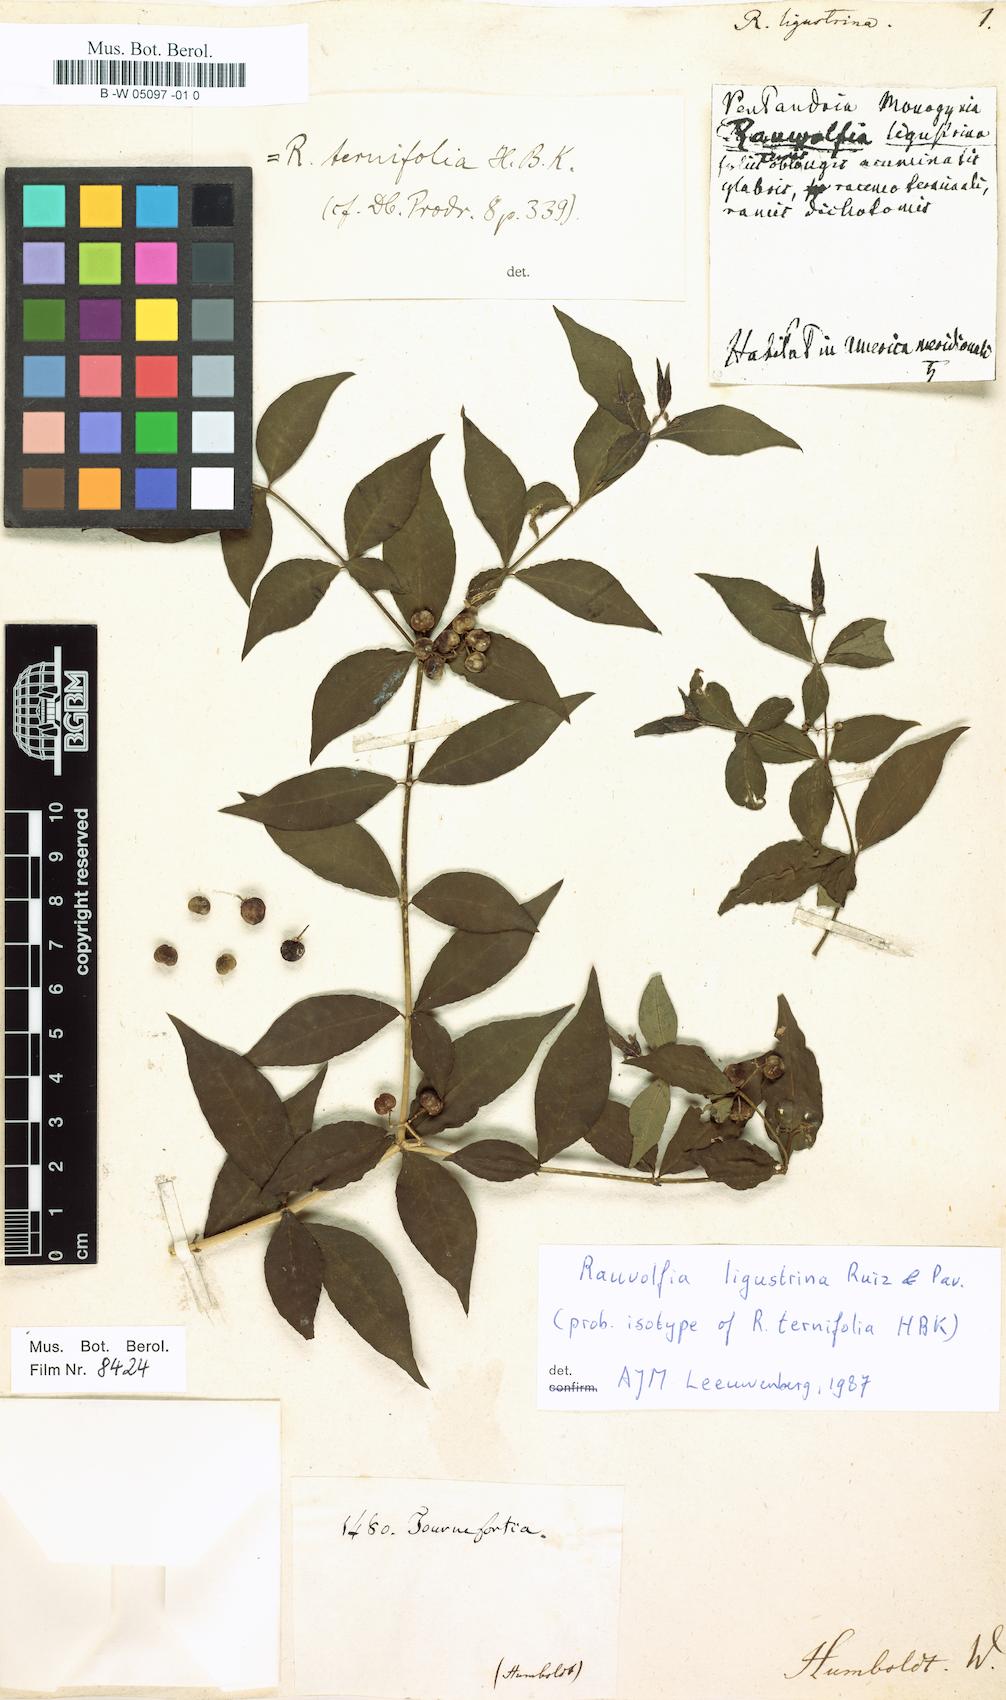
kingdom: Plantae
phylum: Tracheophyta
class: Magnoliopsida
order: Gentianales
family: Apocynaceae
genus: Rauvolfia
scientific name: Rauvolfia ligustrina
